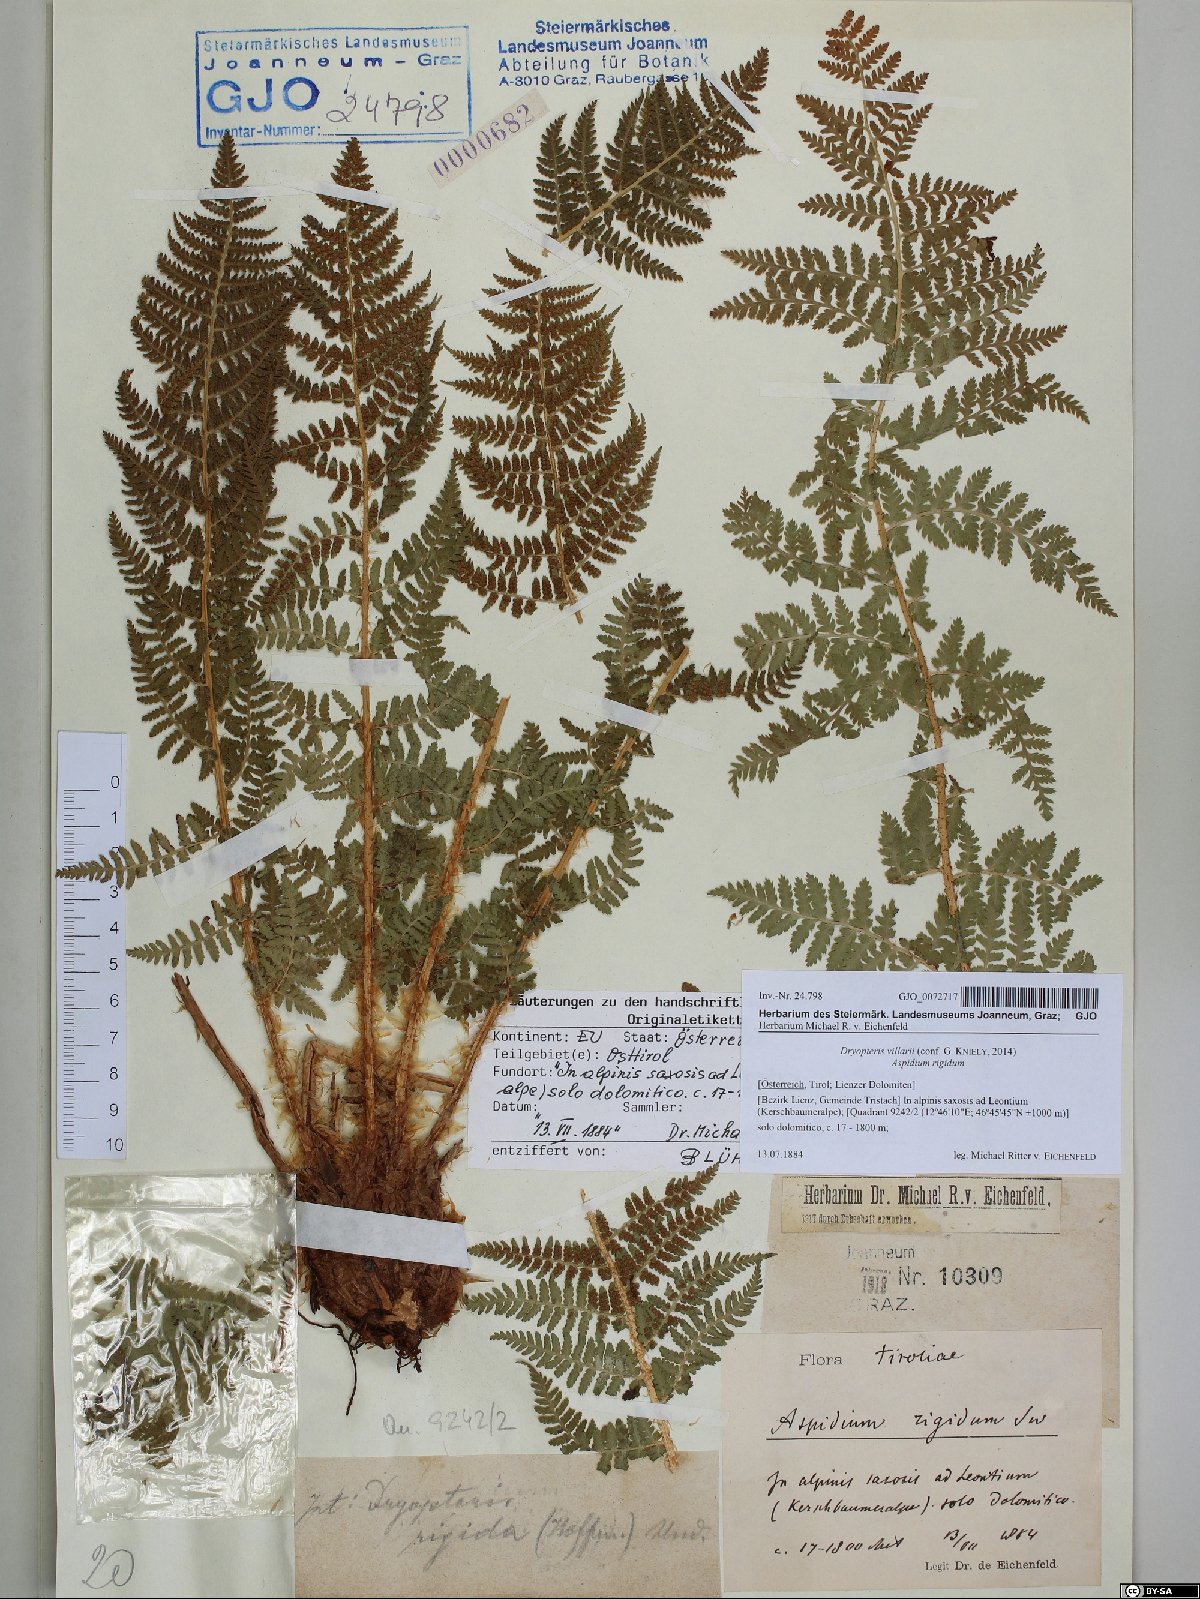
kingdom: Plantae
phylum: Tracheophyta
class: Polypodiopsida
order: Polypodiales
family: Dryopteridaceae
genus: Dryopteris
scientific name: Dryopteris villarii
